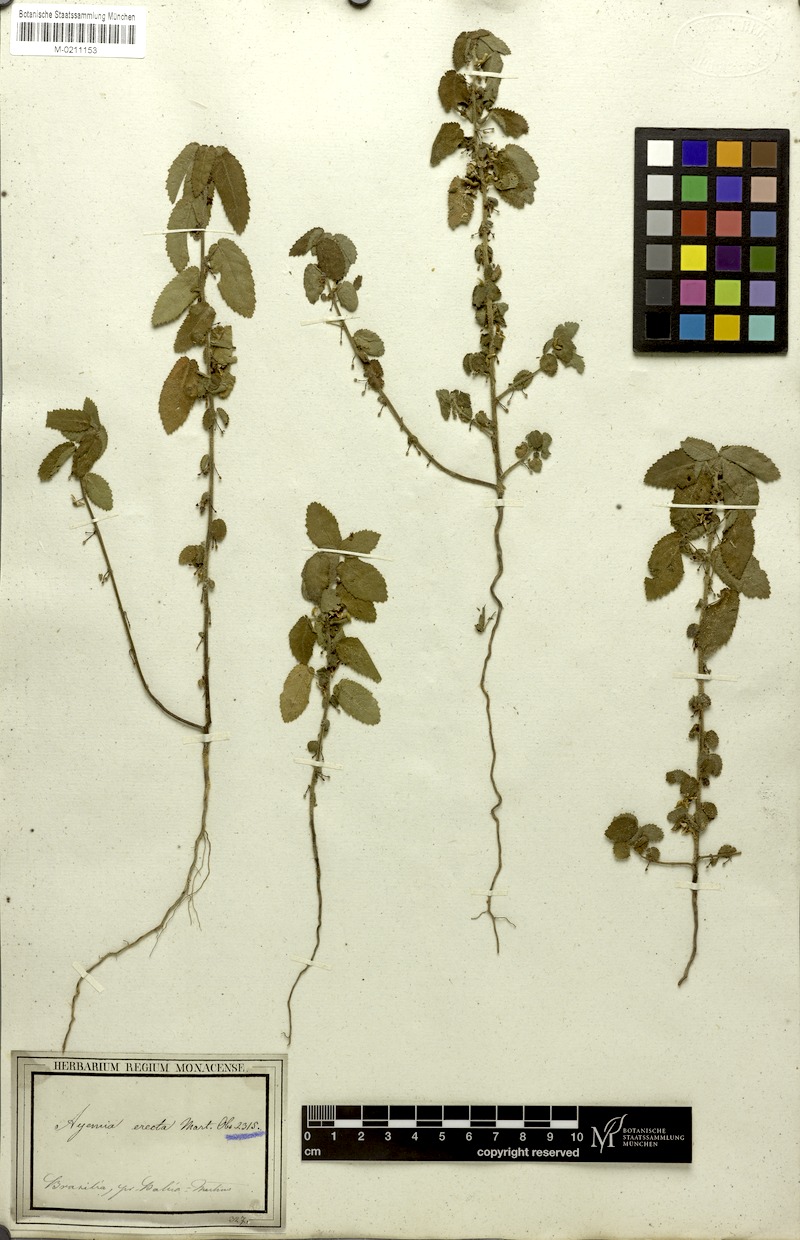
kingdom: Plantae
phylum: Tracheophyta
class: Magnoliopsida
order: Malvales
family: Malvaceae
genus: Ayenia
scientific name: Ayenia erecta
